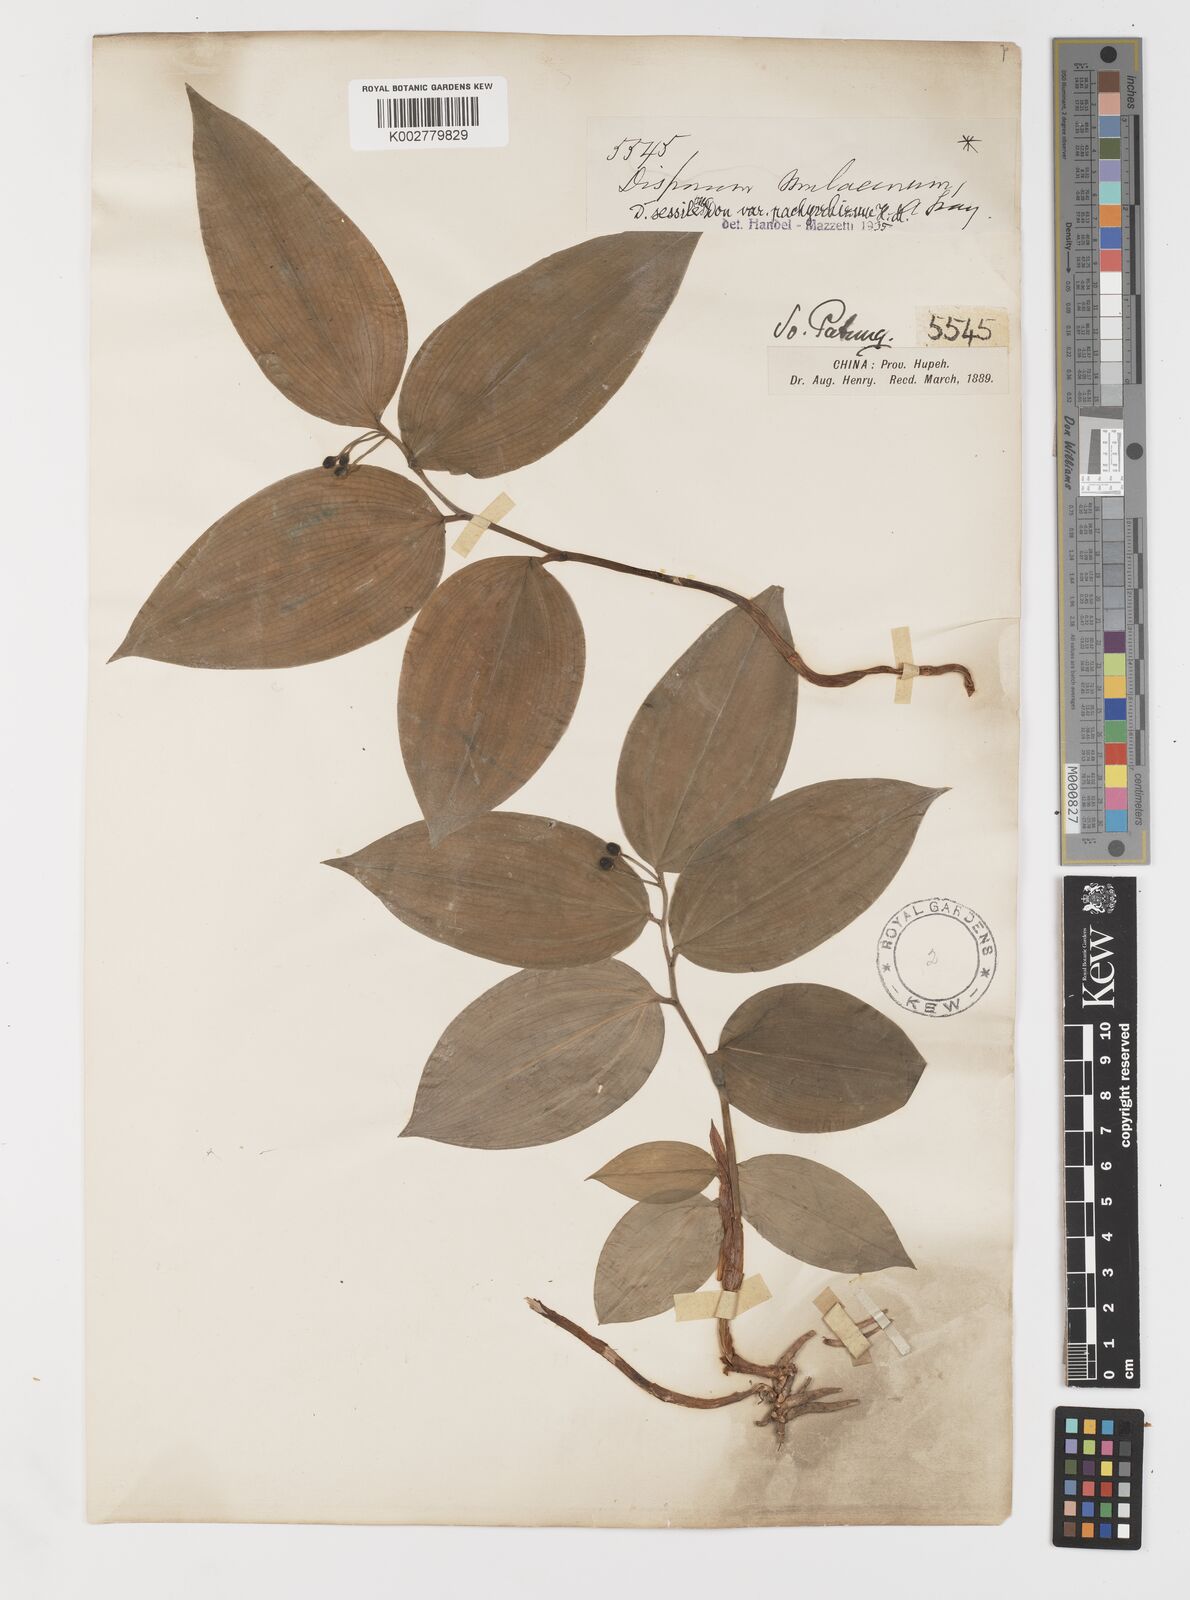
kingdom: Plantae
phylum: Tracheophyta
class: Liliopsida
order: Liliales
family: Colchicaceae
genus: Disporum
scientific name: Disporum sessile
